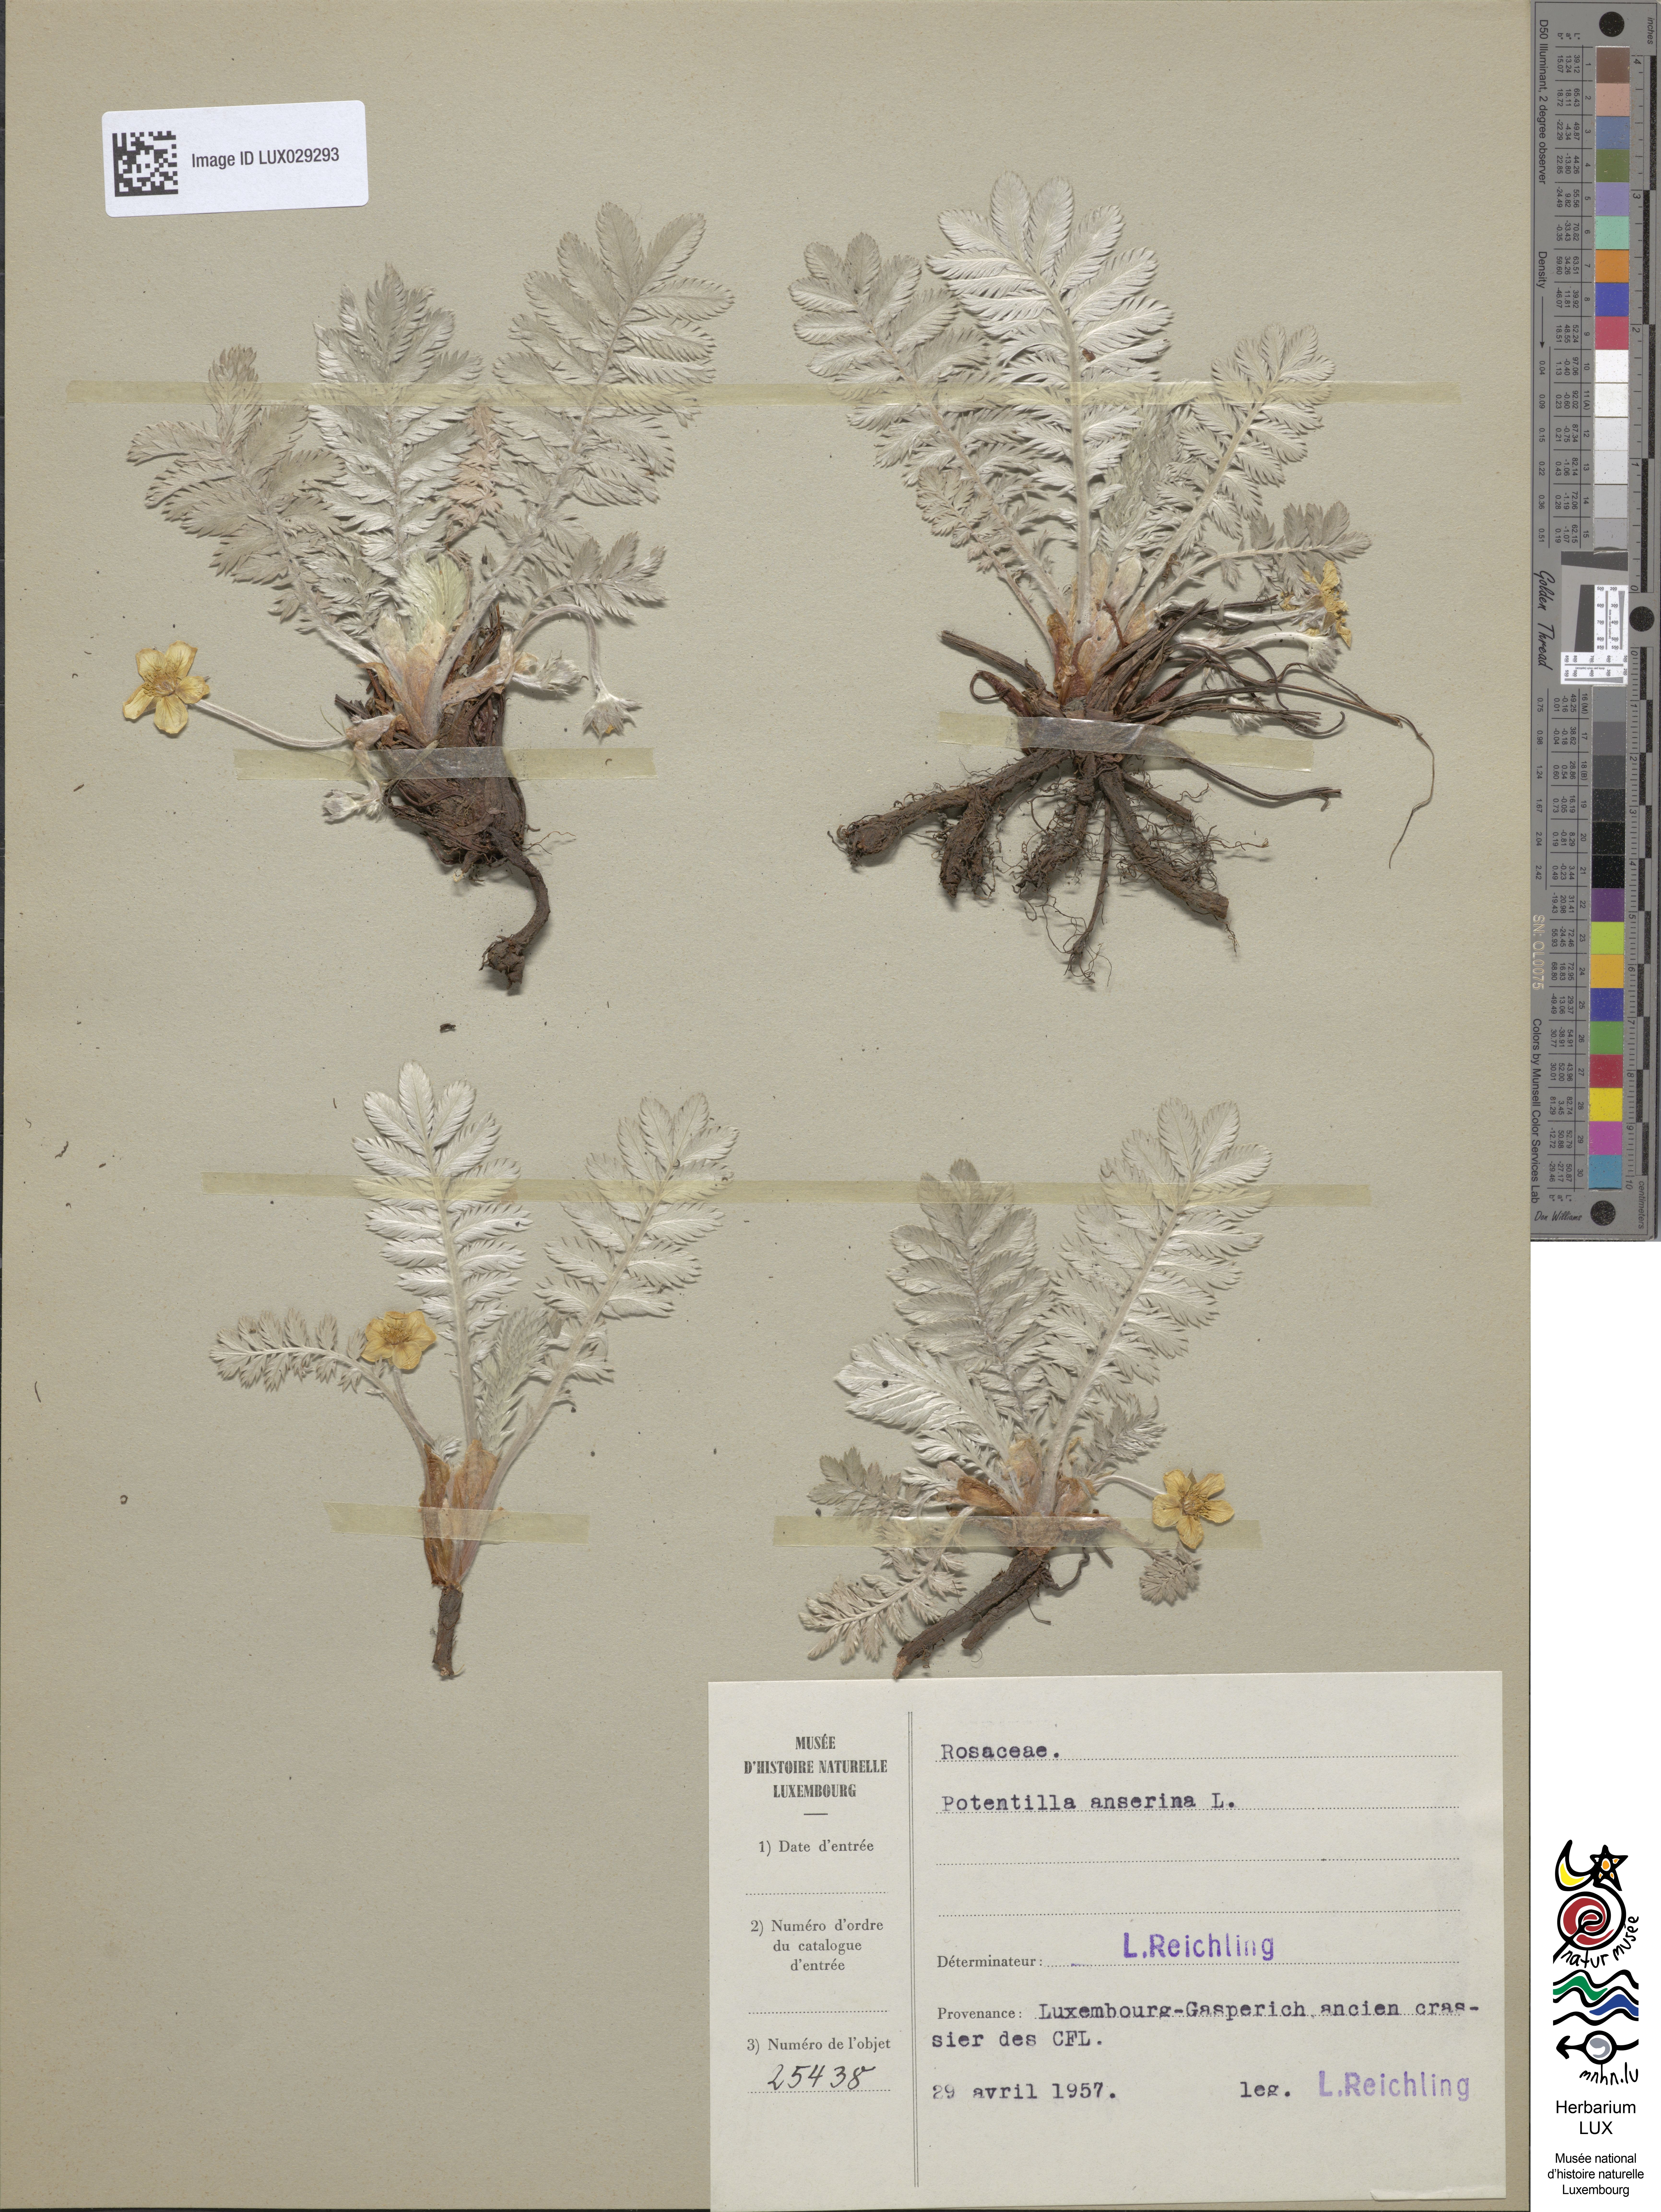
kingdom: Plantae
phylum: Tracheophyta
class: Magnoliopsida
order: Rosales
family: Rosaceae
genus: Argentina
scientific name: Argentina anserina
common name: Common silverweed
